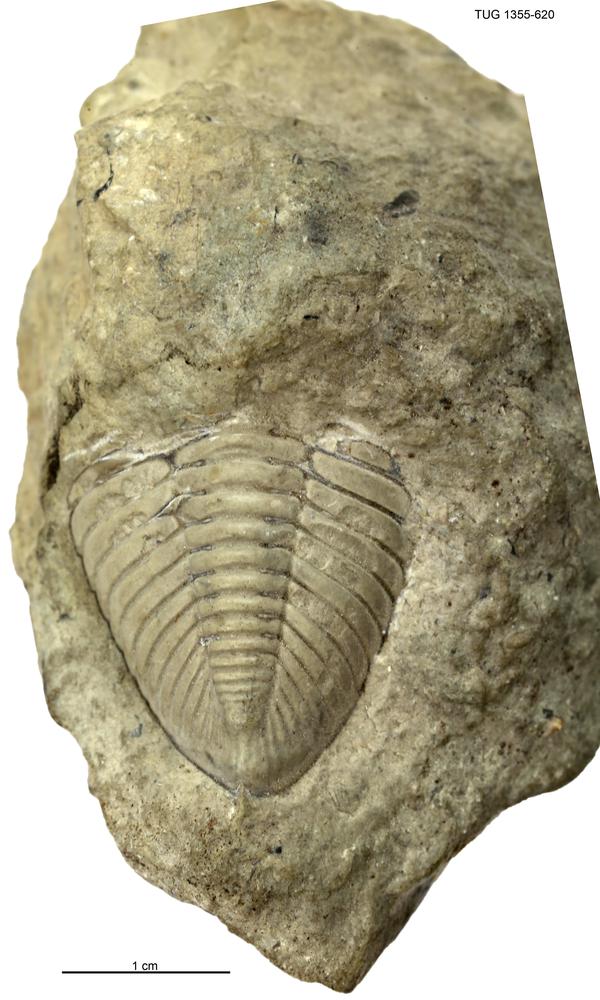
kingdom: Animalia
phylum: Arthropoda
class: Trilobita
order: Phacopida
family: Pterygometopidae
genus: Toxochasmops
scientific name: Toxochasmops maximus
